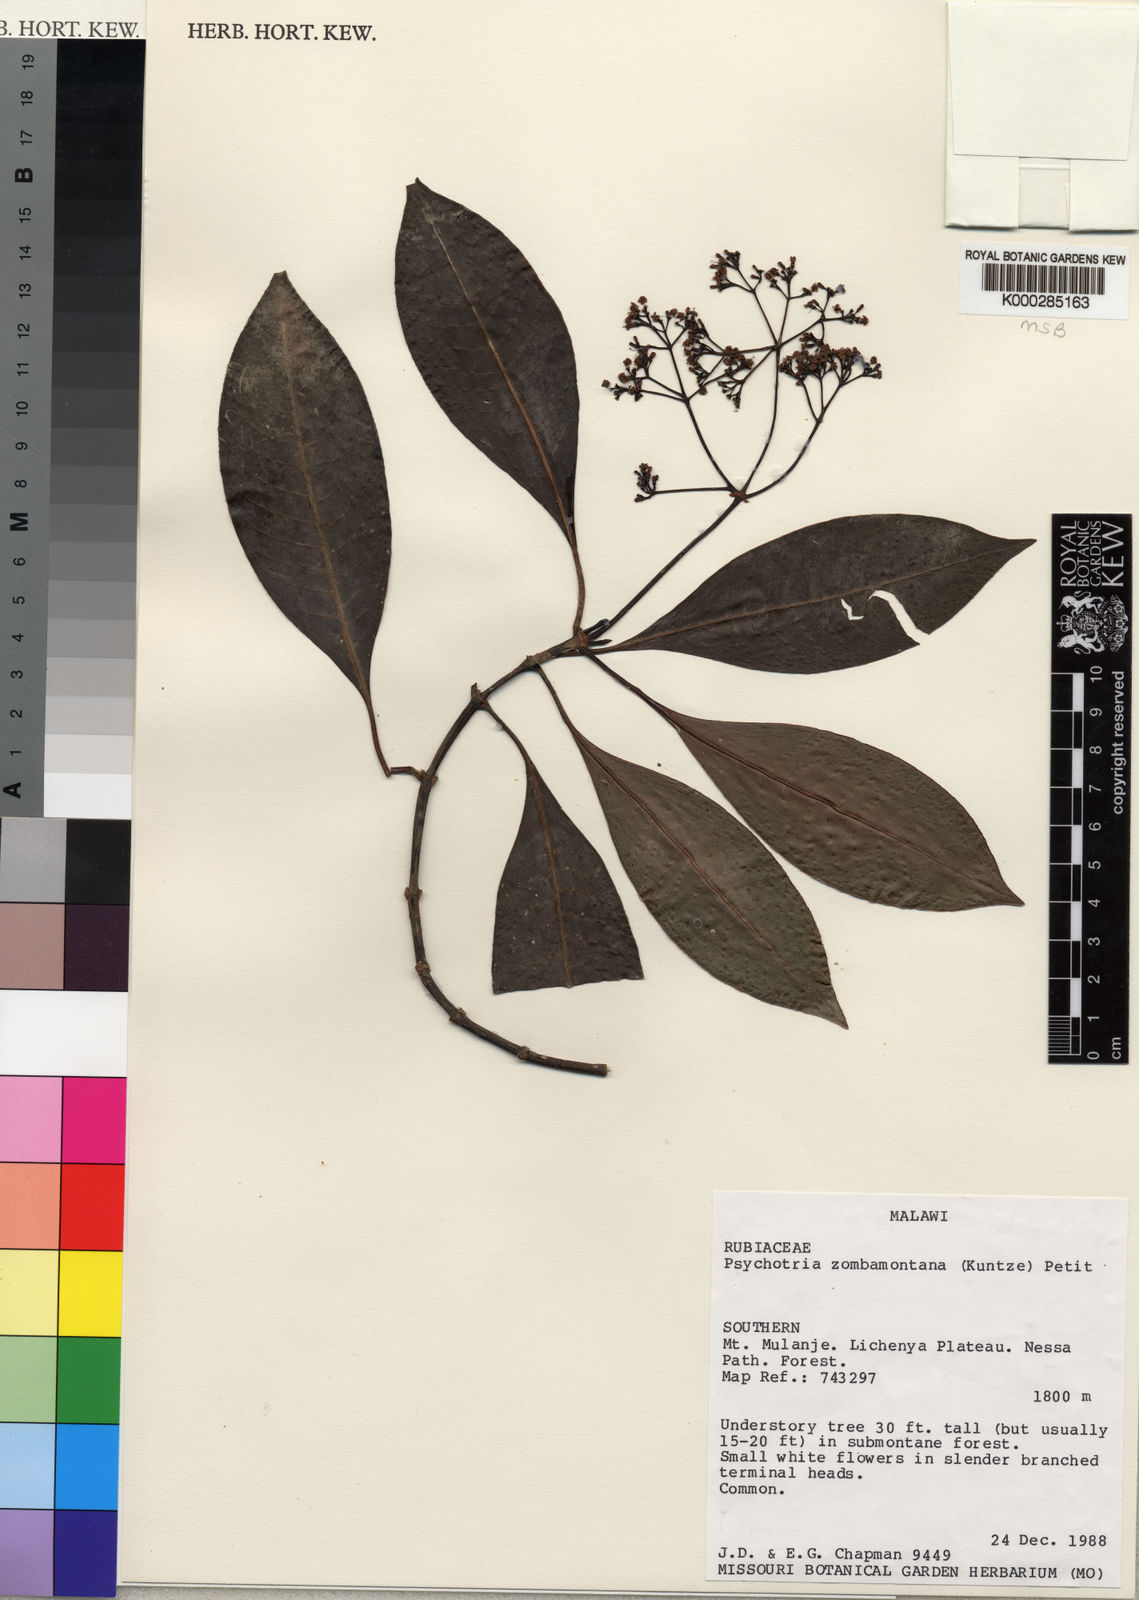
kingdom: Plantae
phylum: Tracheophyta
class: Magnoliopsida
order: Gentianales
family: Rubiaceae
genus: Psychotria
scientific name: Psychotria zombamontana
